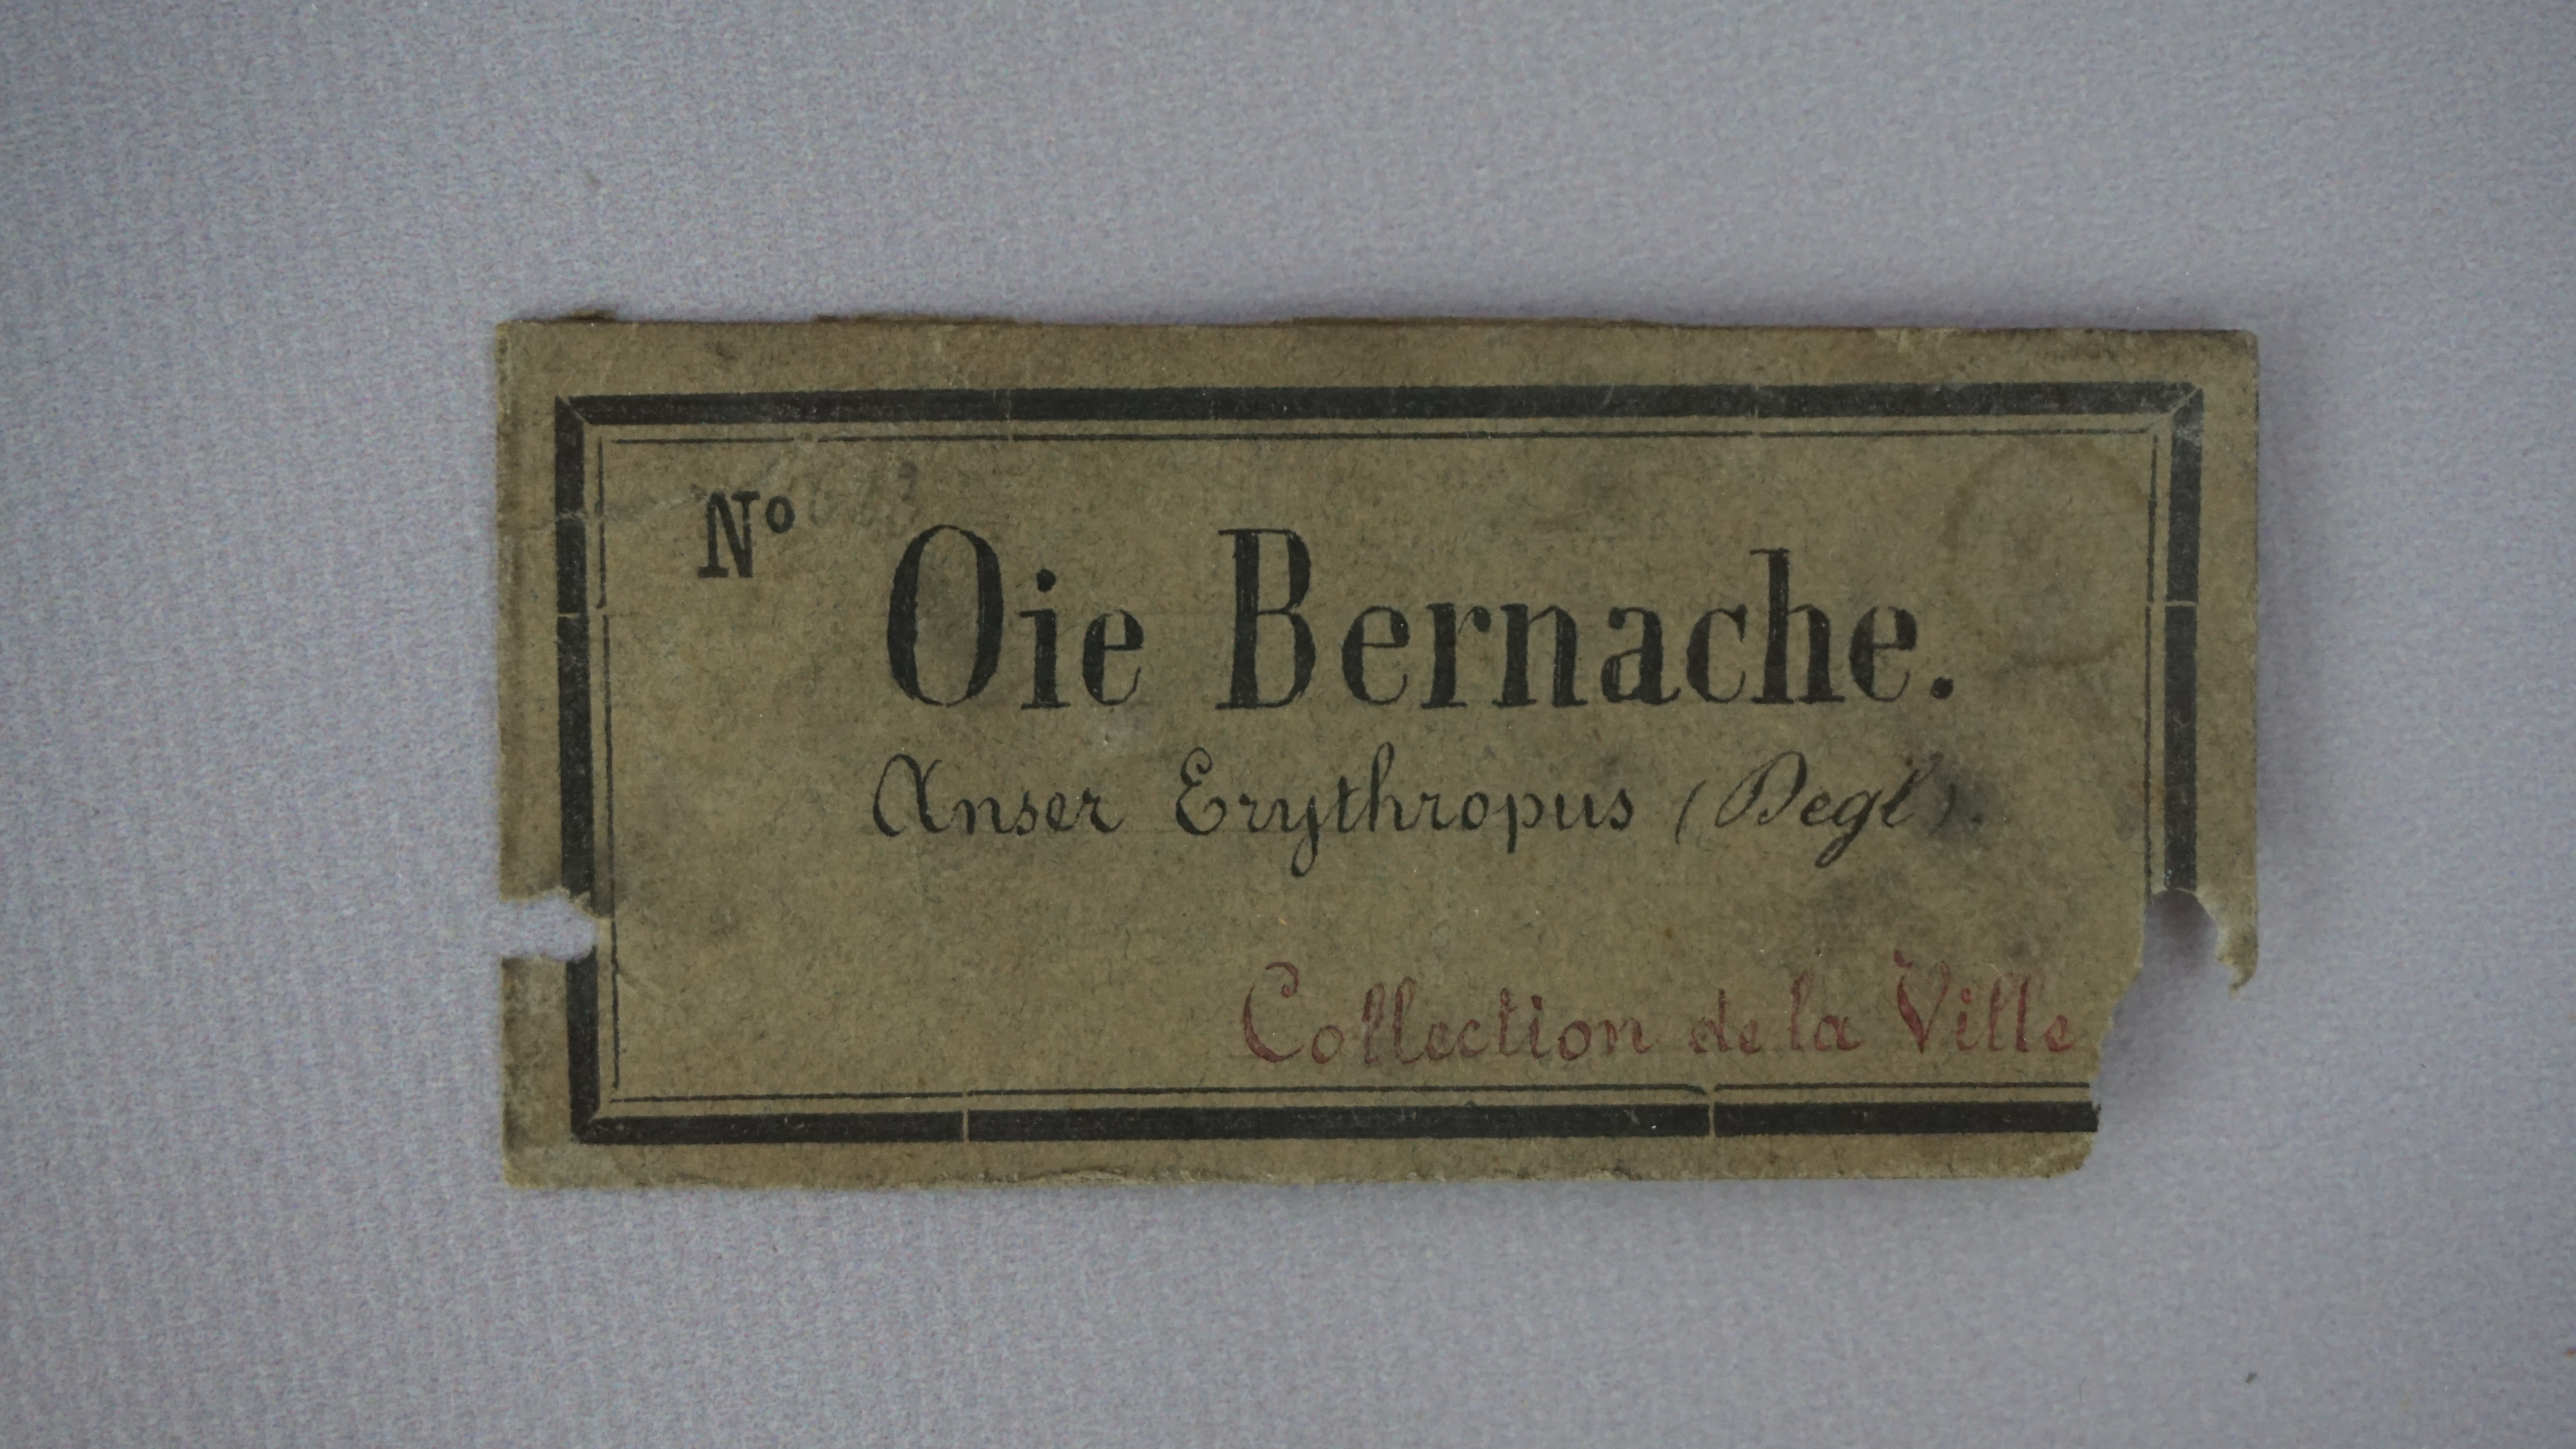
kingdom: Animalia
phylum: Chordata
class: Aves
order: Anseriformes
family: Anatidae
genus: Branta
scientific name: Branta leucopsis
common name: Barnacle goose
